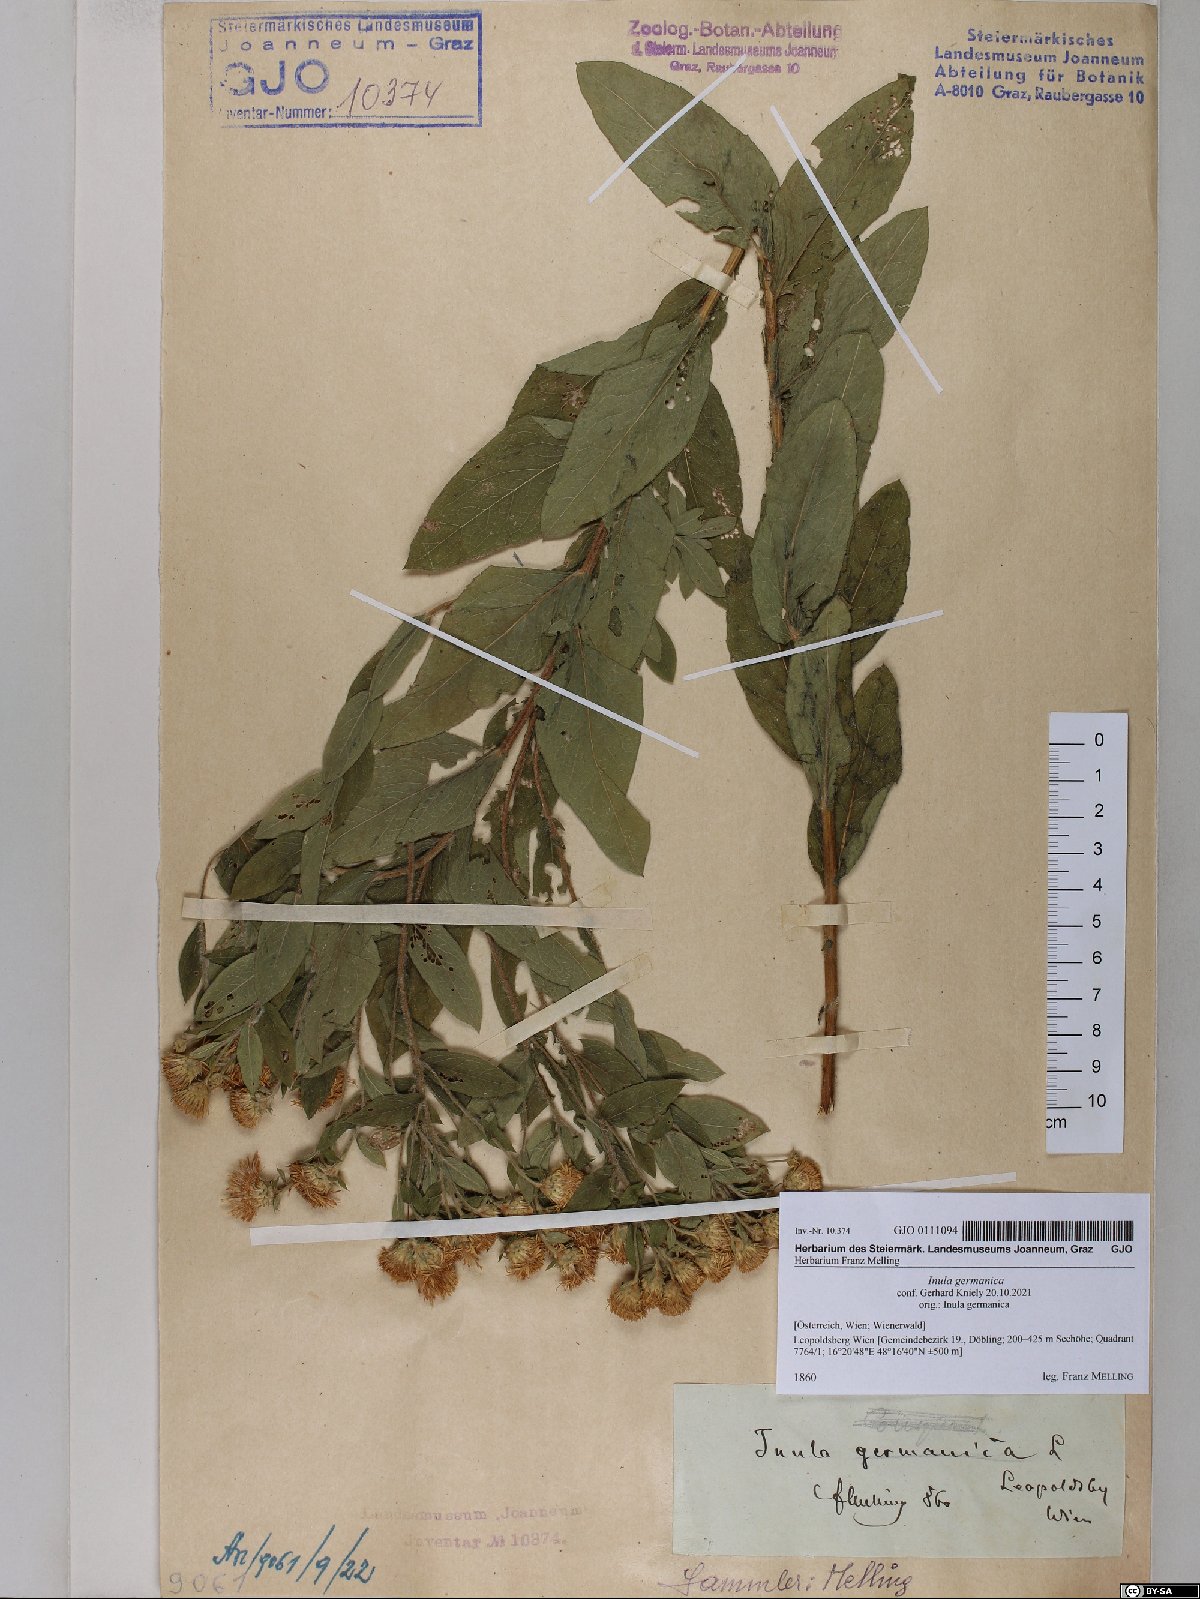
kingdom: Plantae
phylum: Tracheophyta
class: Magnoliopsida
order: Asterales
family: Asteraceae
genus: Pentanema
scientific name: Pentanema germanicum
